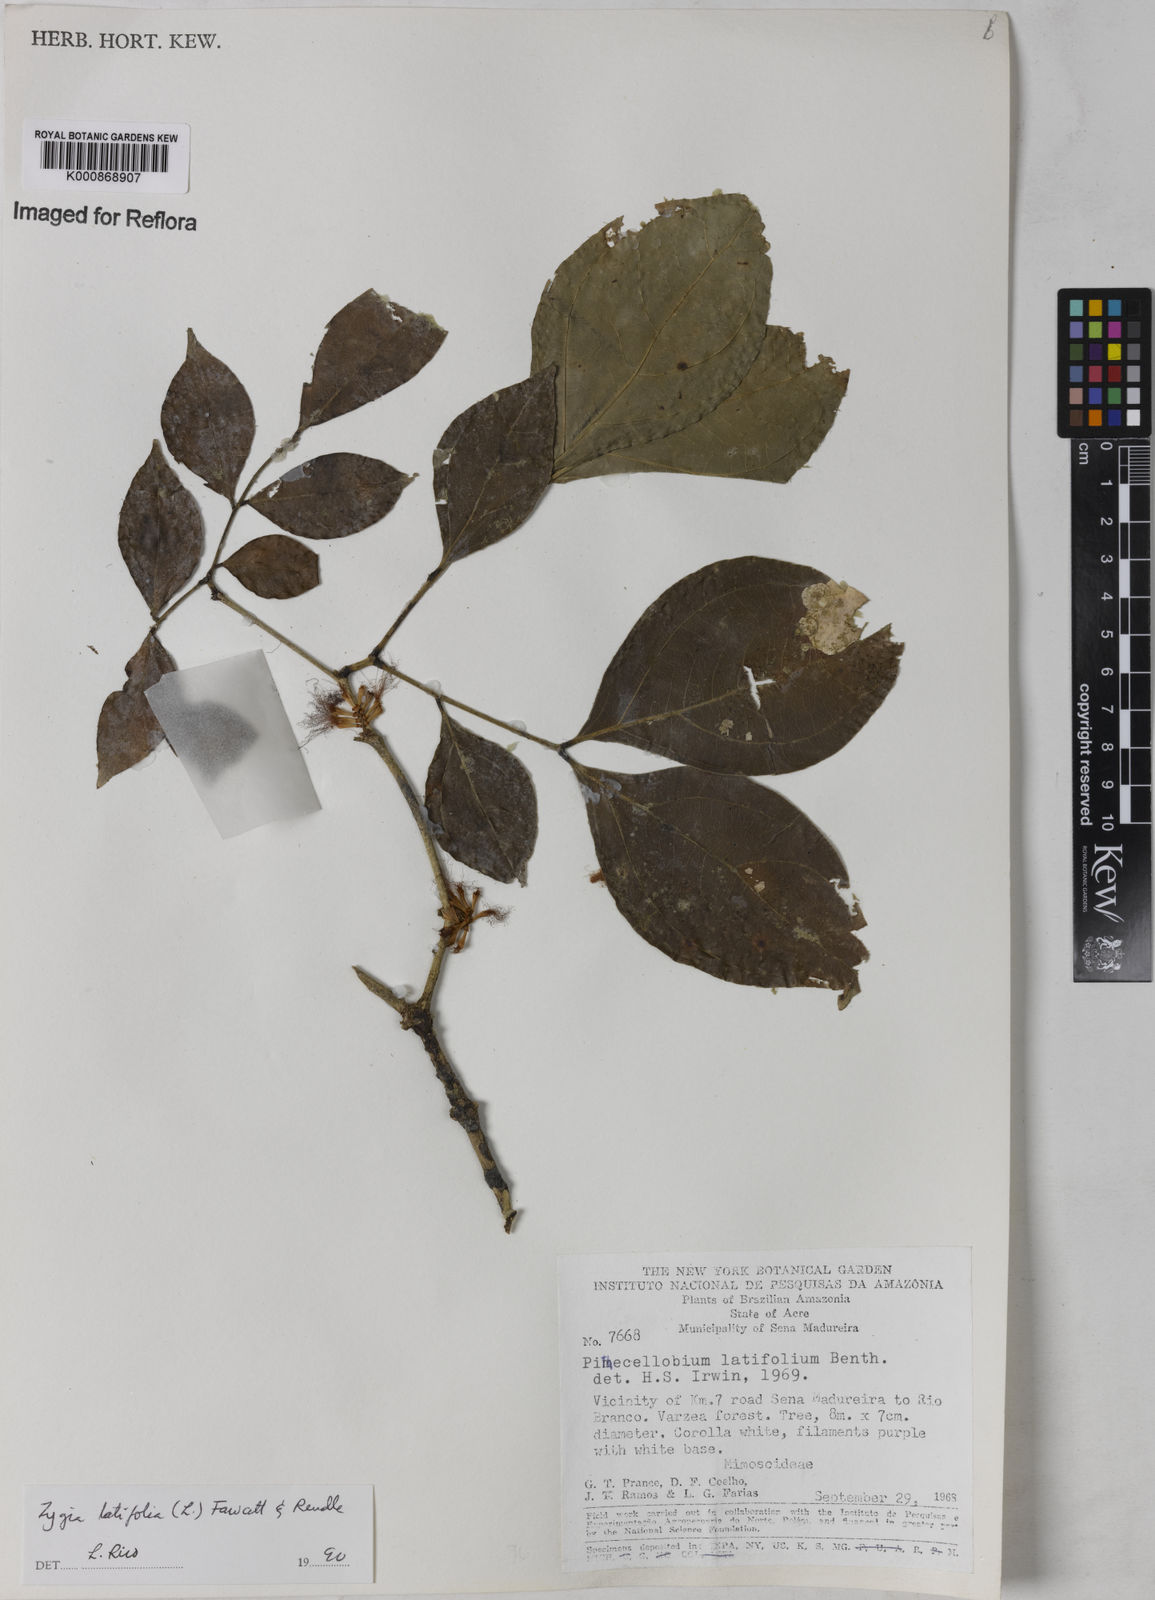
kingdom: Plantae
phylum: Tracheophyta
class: Magnoliopsida
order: Fabales
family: Fabaceae
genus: Zygia
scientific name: Zygia latifolia
